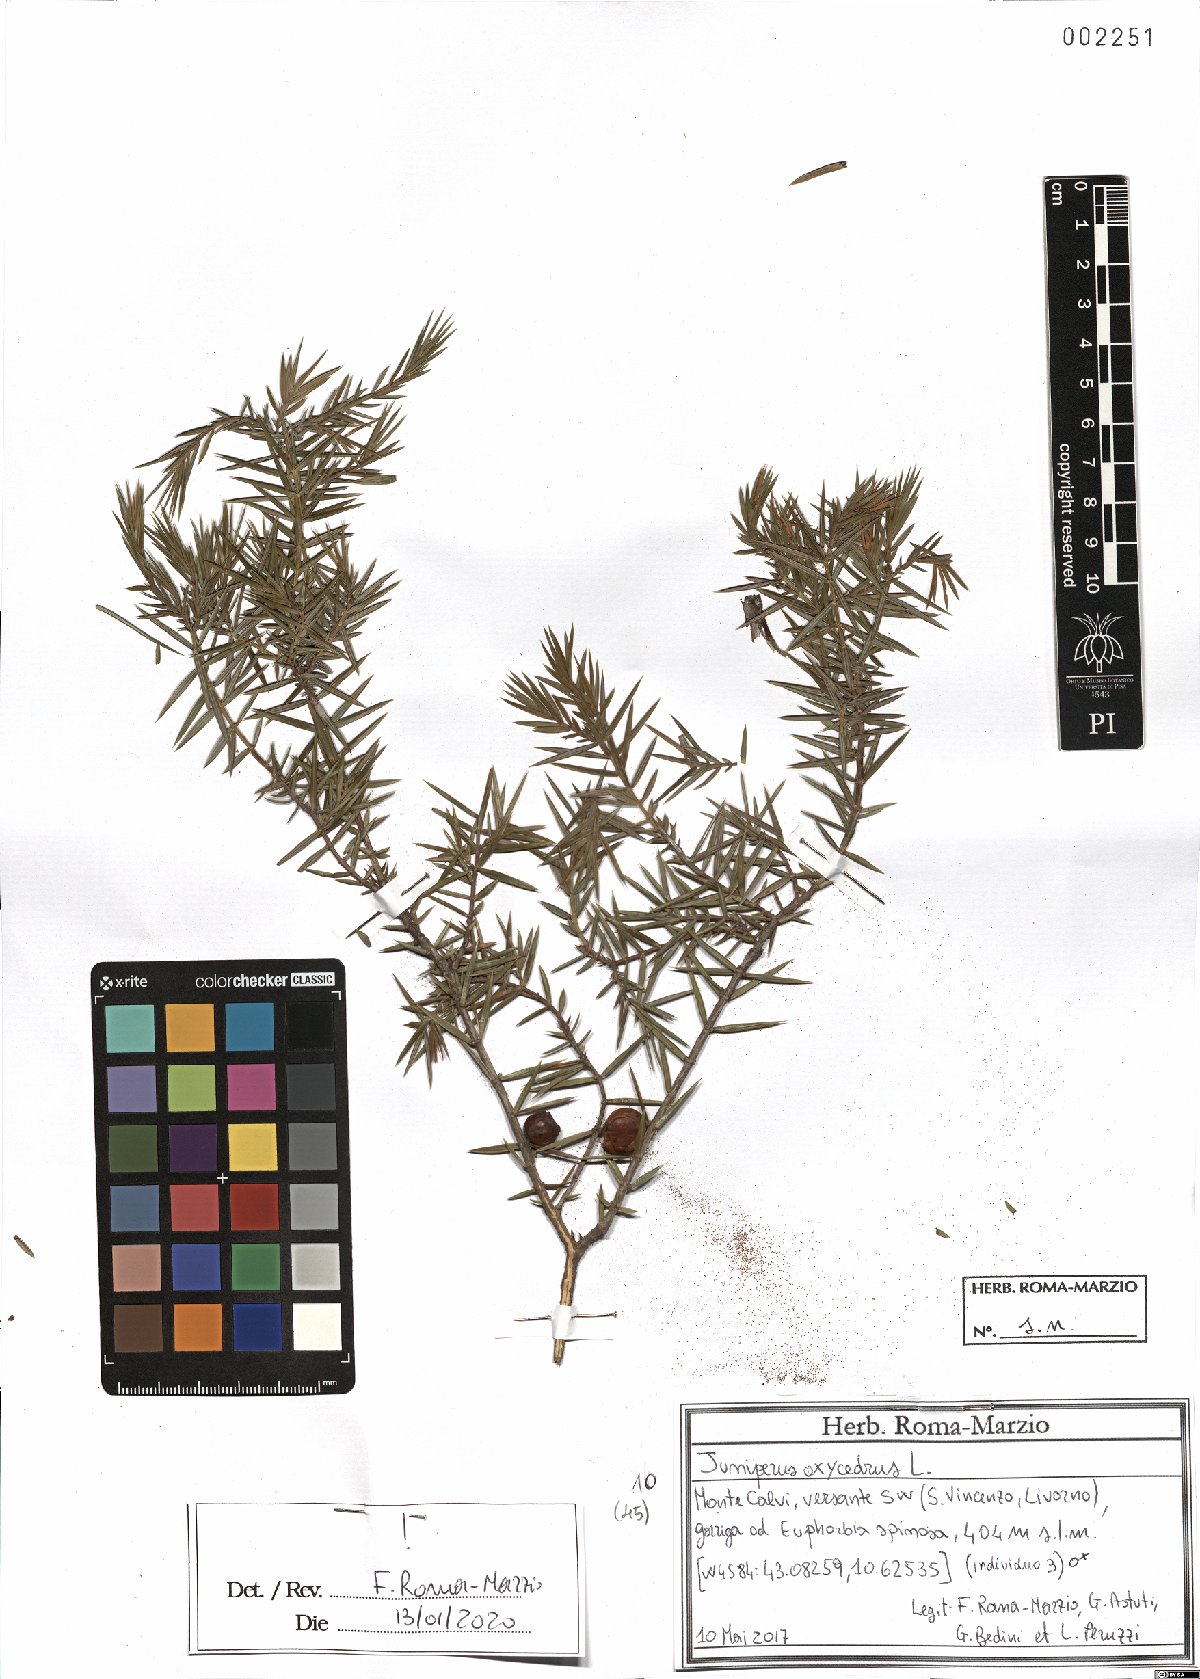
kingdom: Plantae
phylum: Tracheophyta
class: Pinopsida
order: Pinales
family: Cupressaceae
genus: Juniperus
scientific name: Juniperus oxycedrus
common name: Prickly juniper
